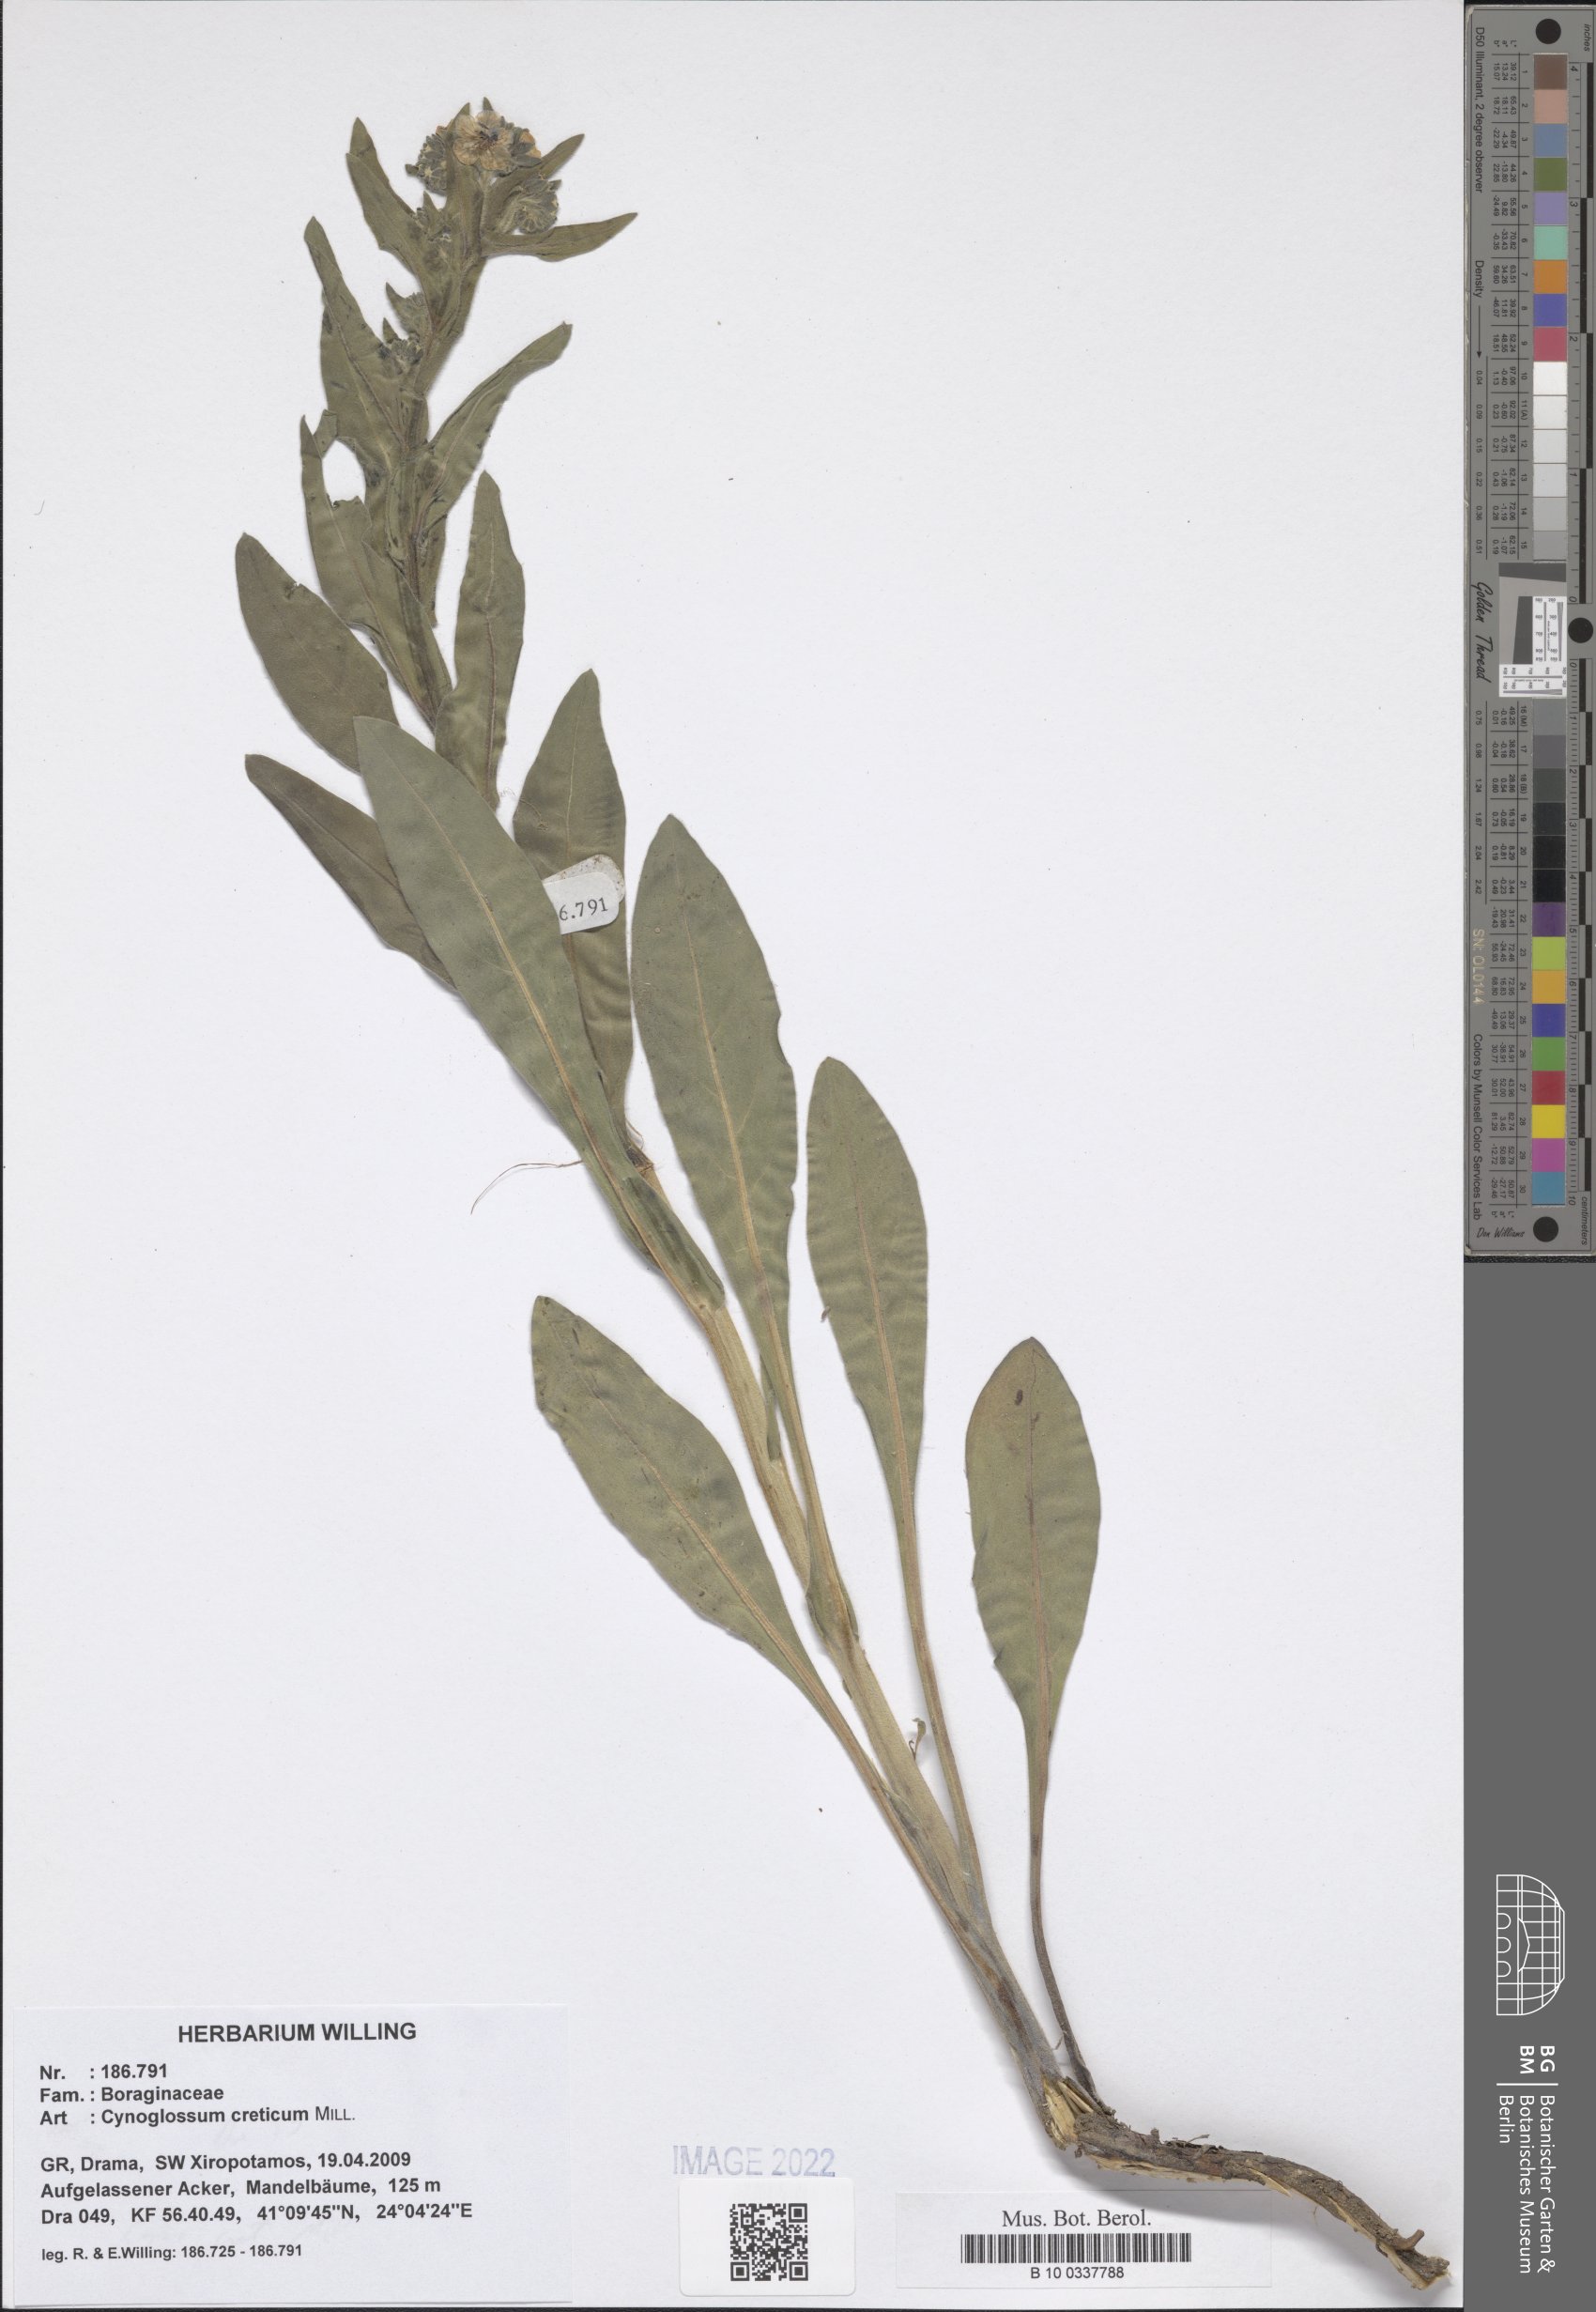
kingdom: Plantae
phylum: Tracheophyta
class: Magnoliopsida
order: Boraginales
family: Boraginaceae
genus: Cynoglossum
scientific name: Cynoglossum creticum
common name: Blue hound's tongue
